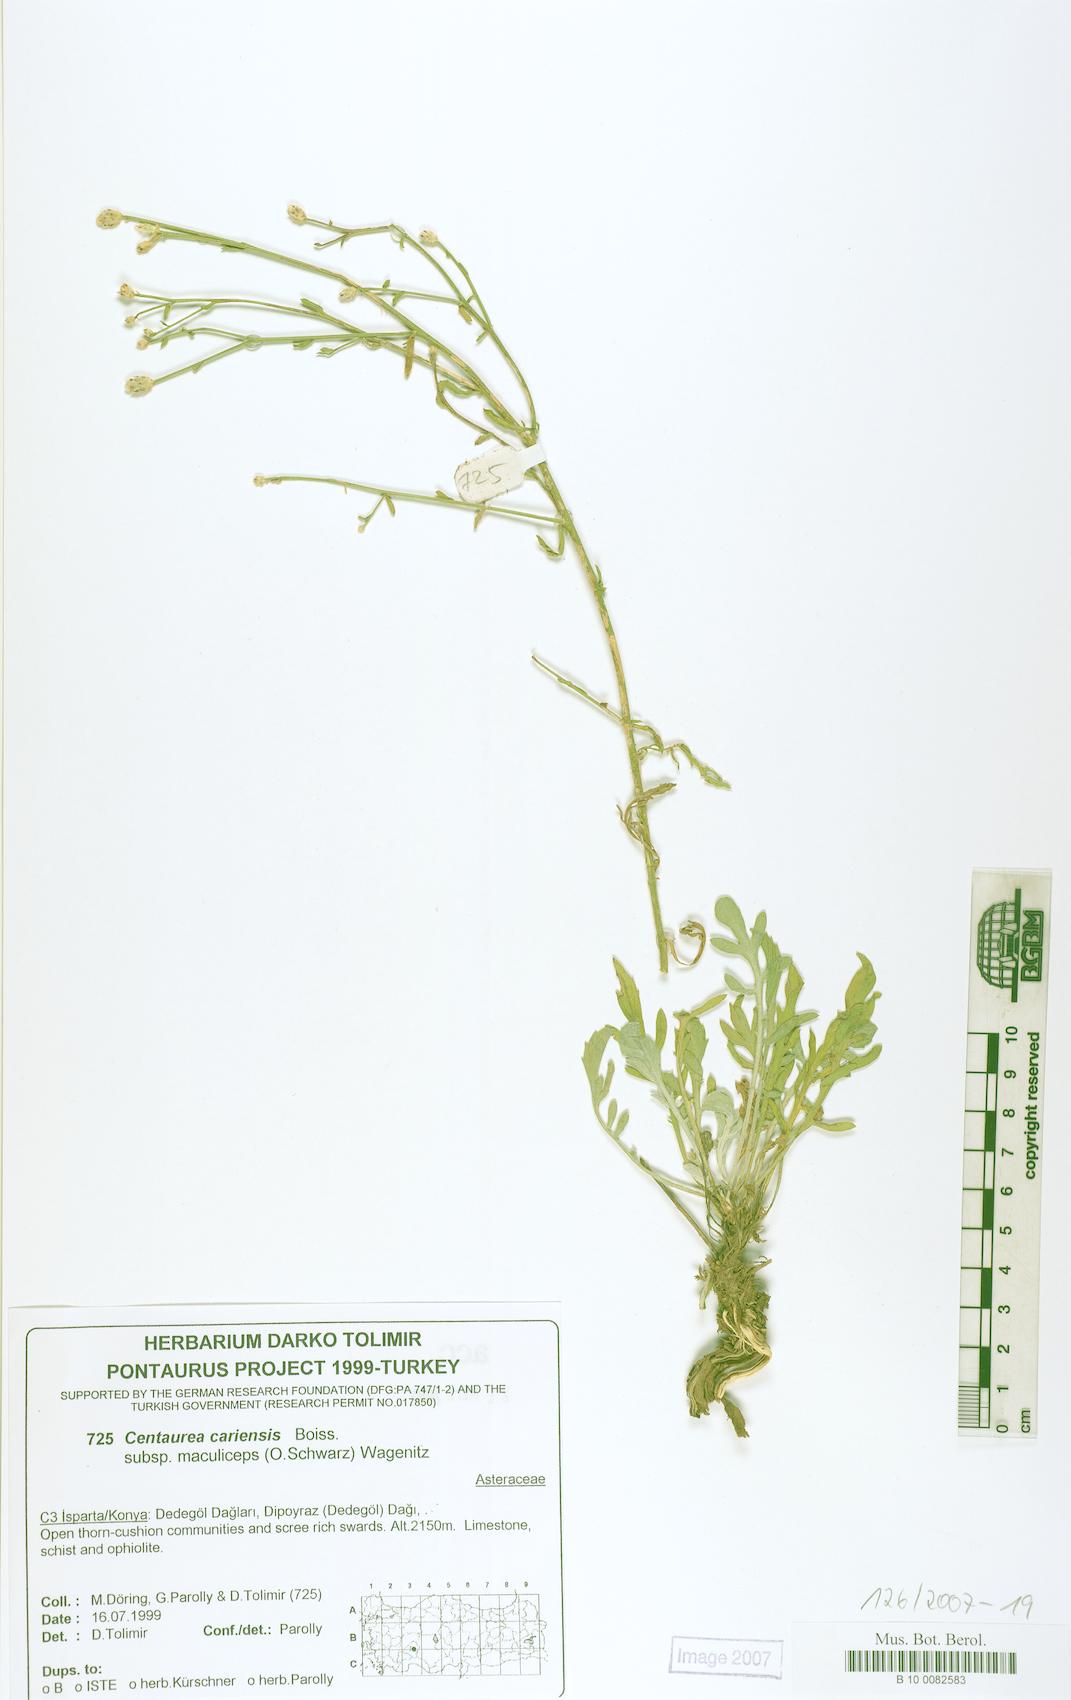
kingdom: Plantae
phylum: Tracheophyta
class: Magnoliopsida
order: Asterales
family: Asteraceae
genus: Centaurea
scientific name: Centaurea cariensis
